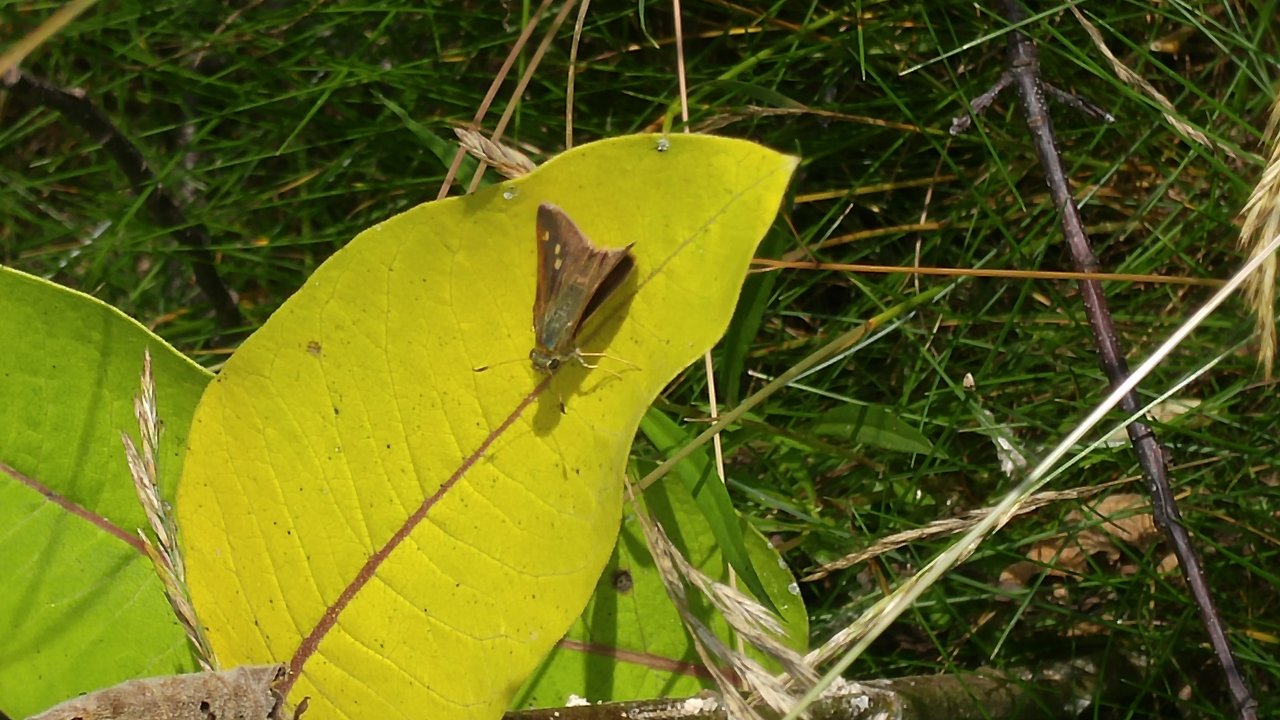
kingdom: Animalia
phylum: Arthropoda
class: Insecta
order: Lepidoptera
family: Hesperiidae
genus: Polites
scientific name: Polites egeremet
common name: Northern Broken-Dash
